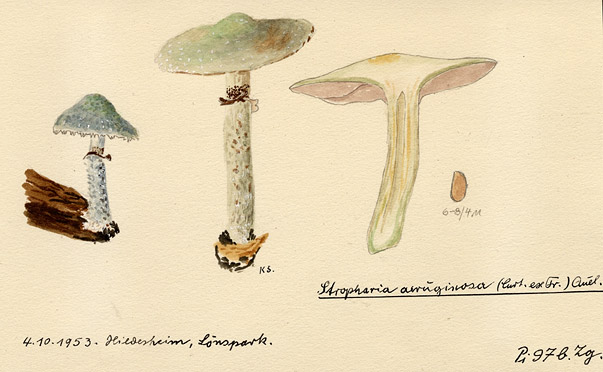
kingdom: Fungi
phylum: Basidiomycota
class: Agaricomycetes
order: Agaricales
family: Strophariaceae
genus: Stropharia
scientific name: Stropharia aeruginosa
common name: Verdigris roundhead
